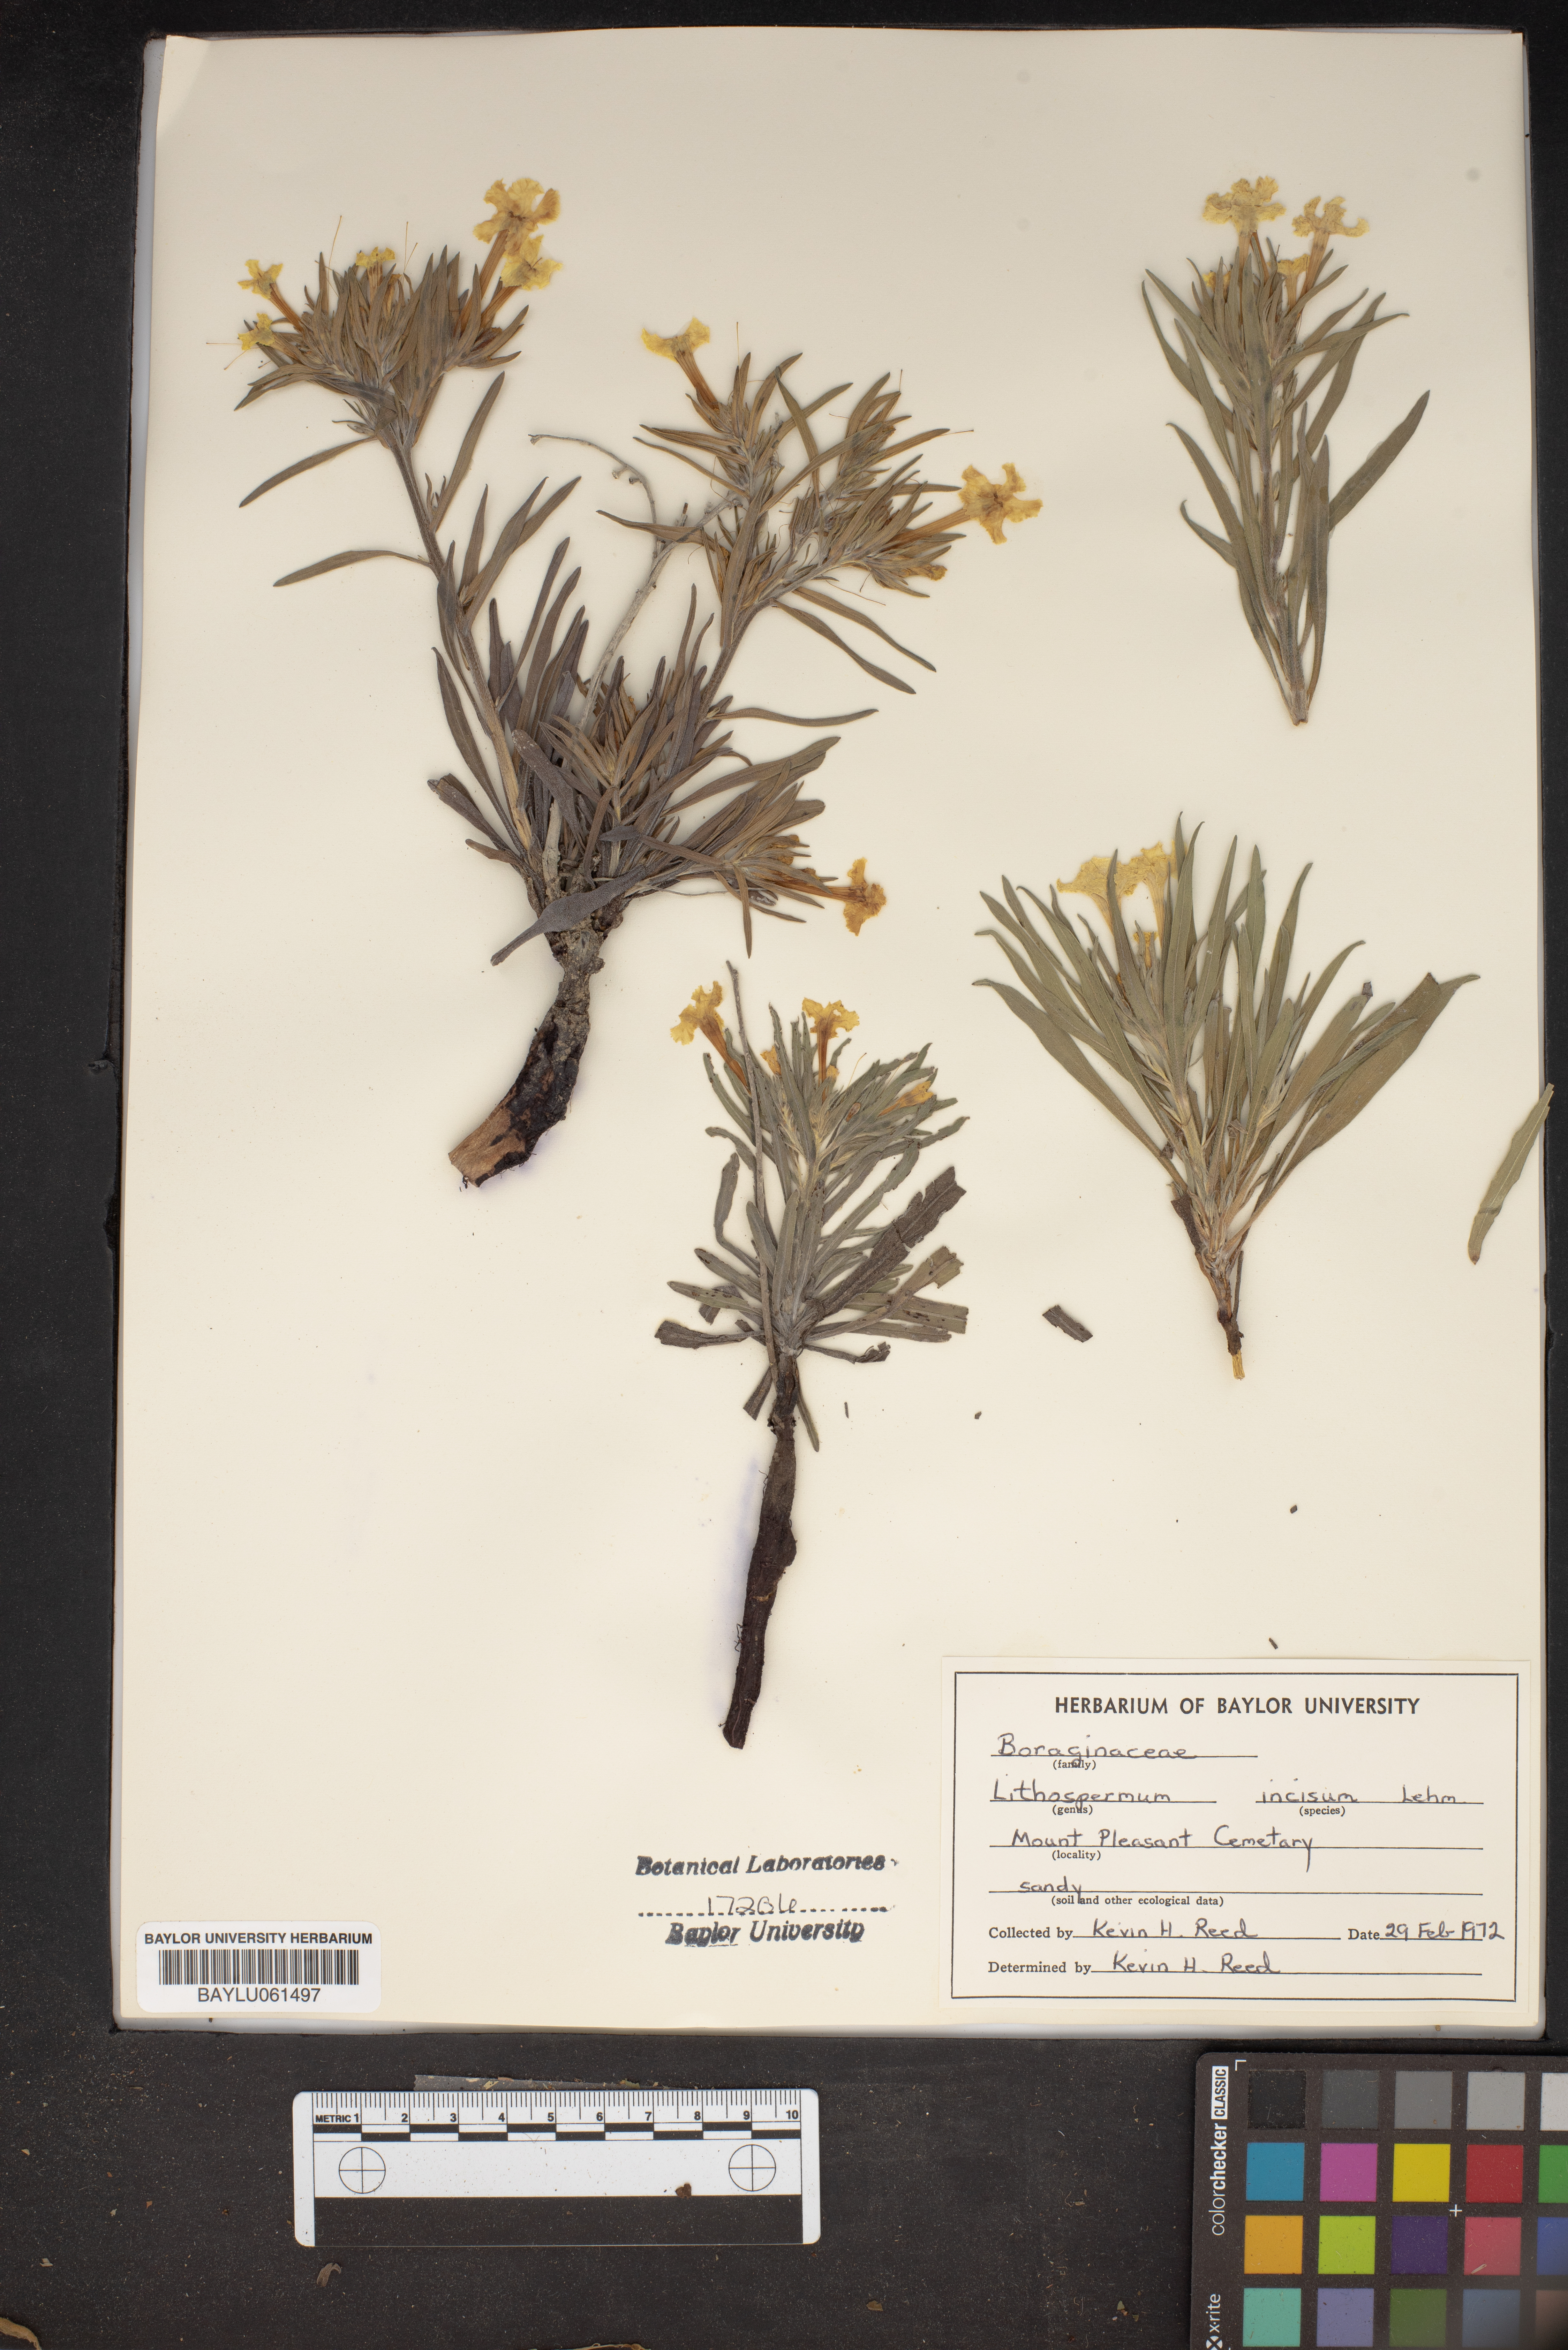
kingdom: Plantae
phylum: Tracheophyta
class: Magnoliopsida
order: Boraginales
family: Boraginaceae
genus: Lithospermum
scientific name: Lithospermum incisum
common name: Fringed gromwell
